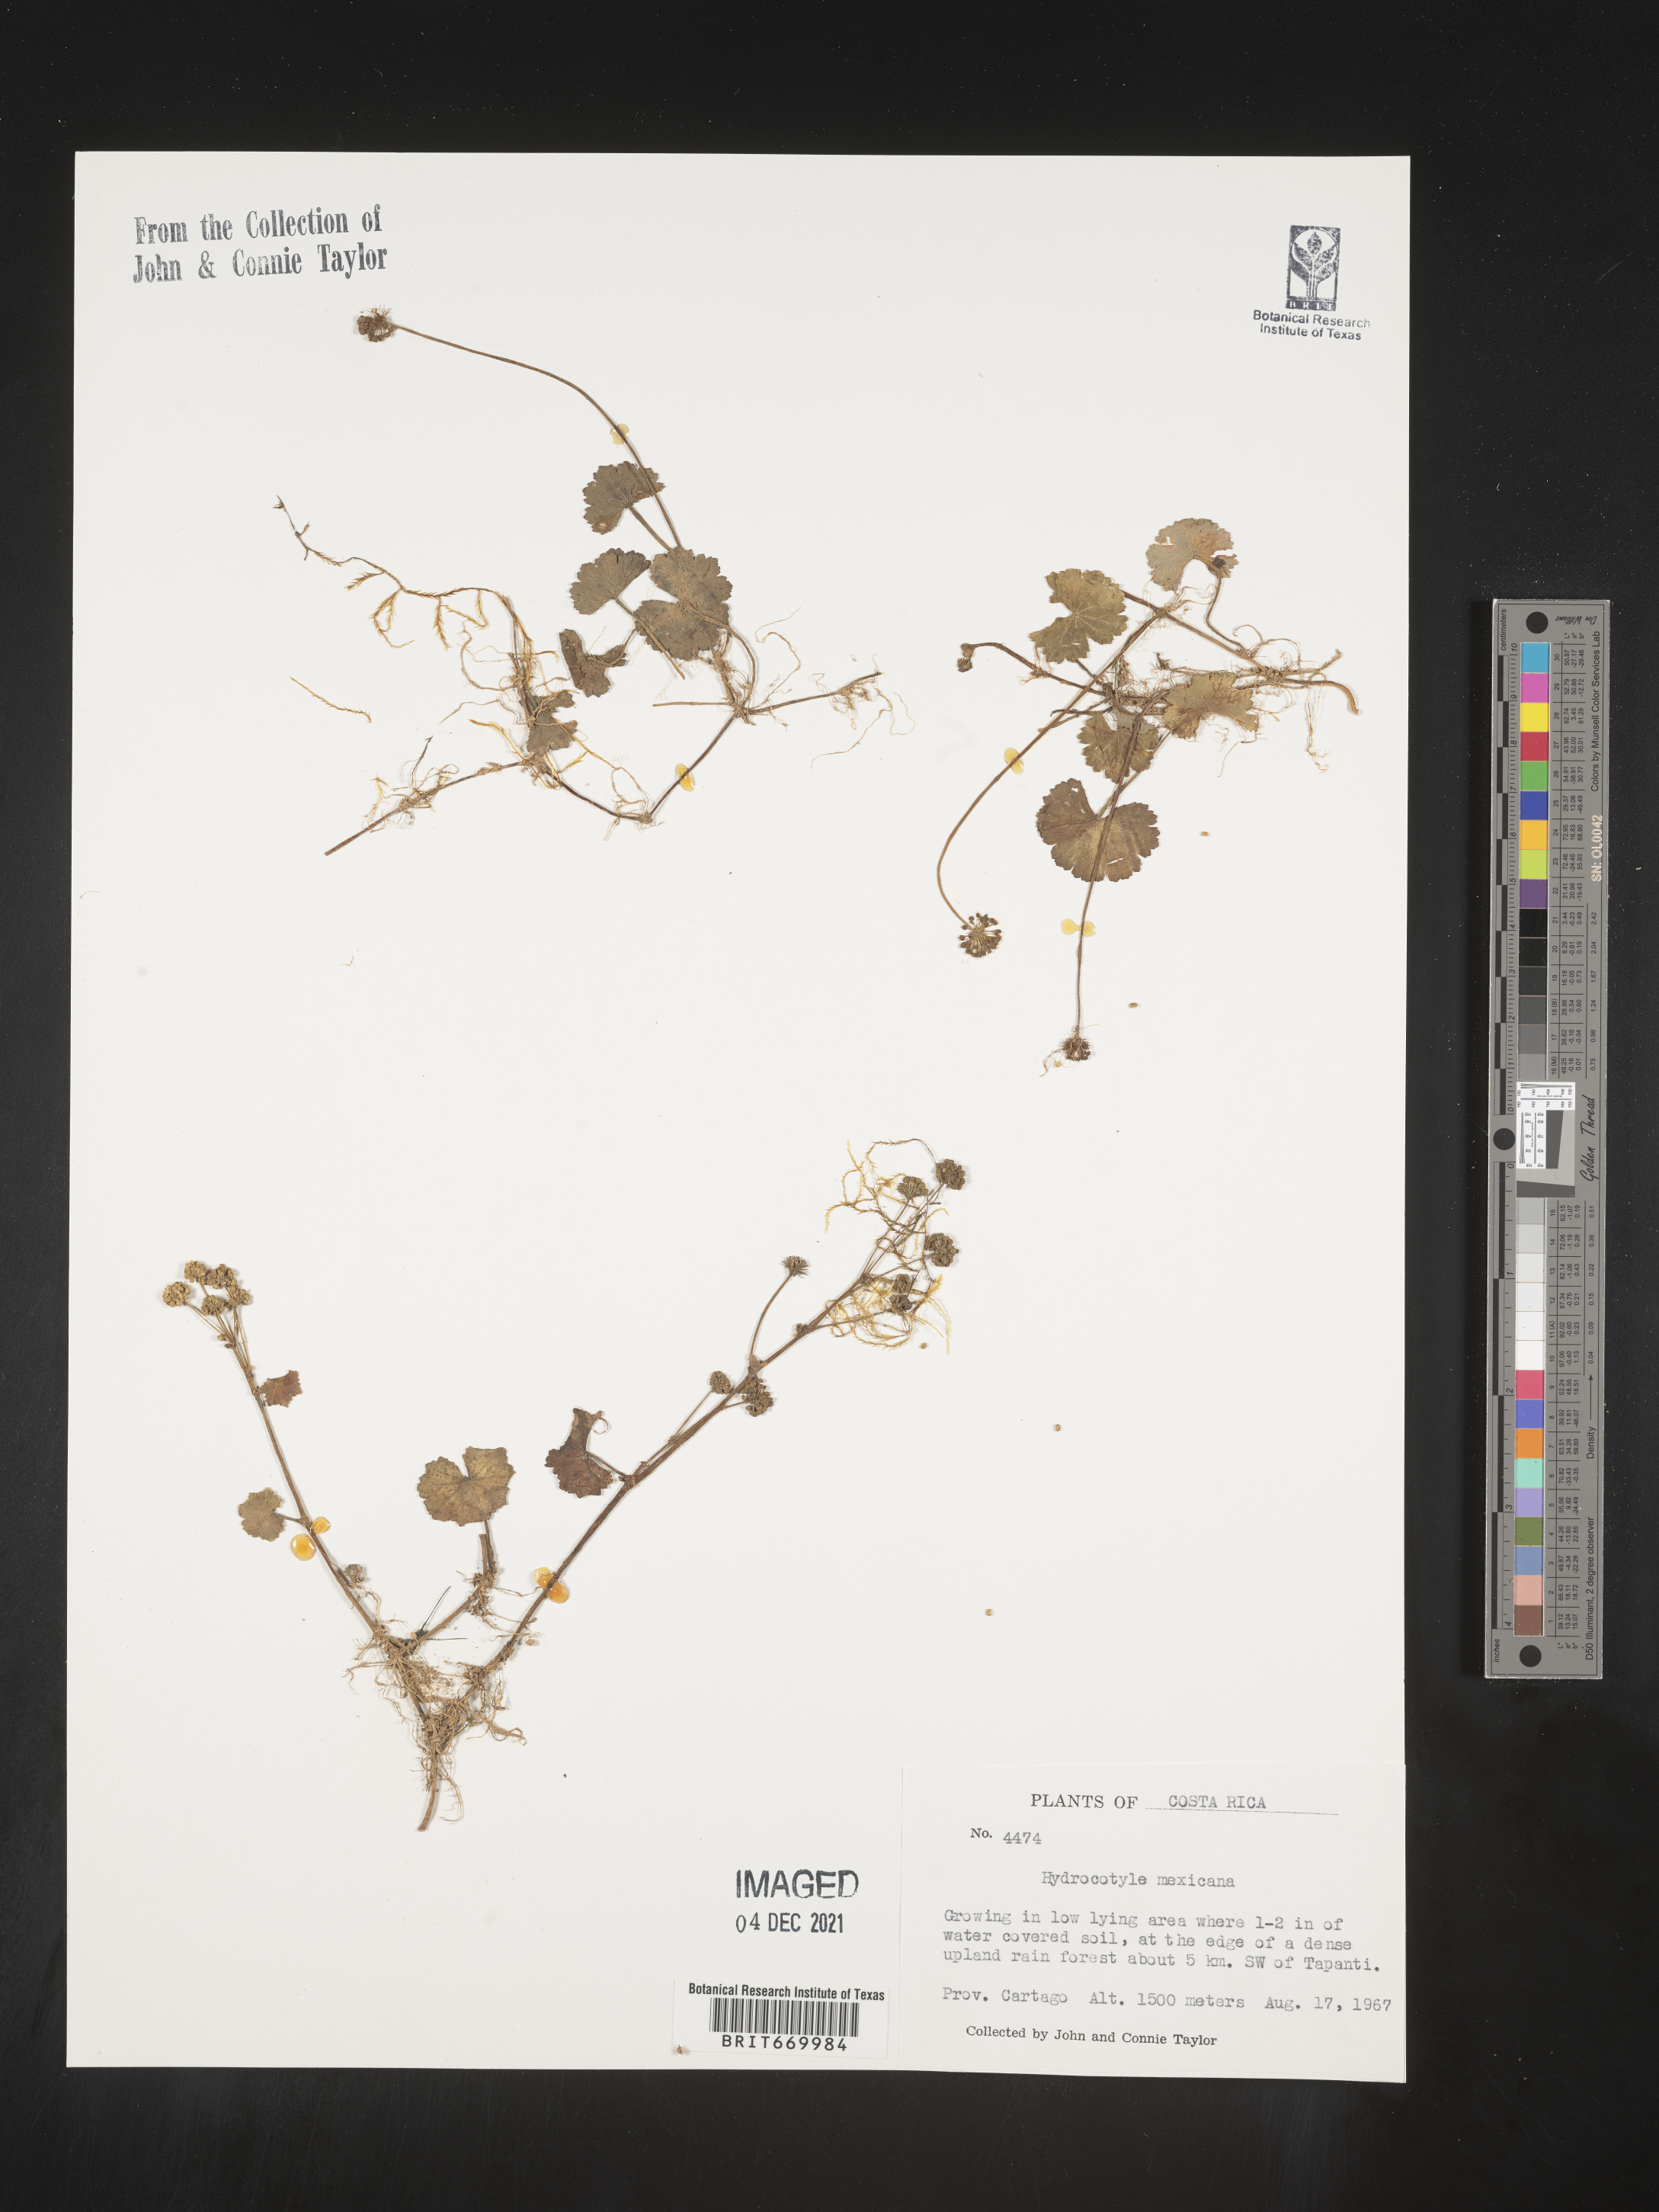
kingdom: Plantae
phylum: Tracheophyta
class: Magnoliopsida
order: Apiales
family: Araliaceae
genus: Hydrocotyle
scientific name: Hydrocotyle
